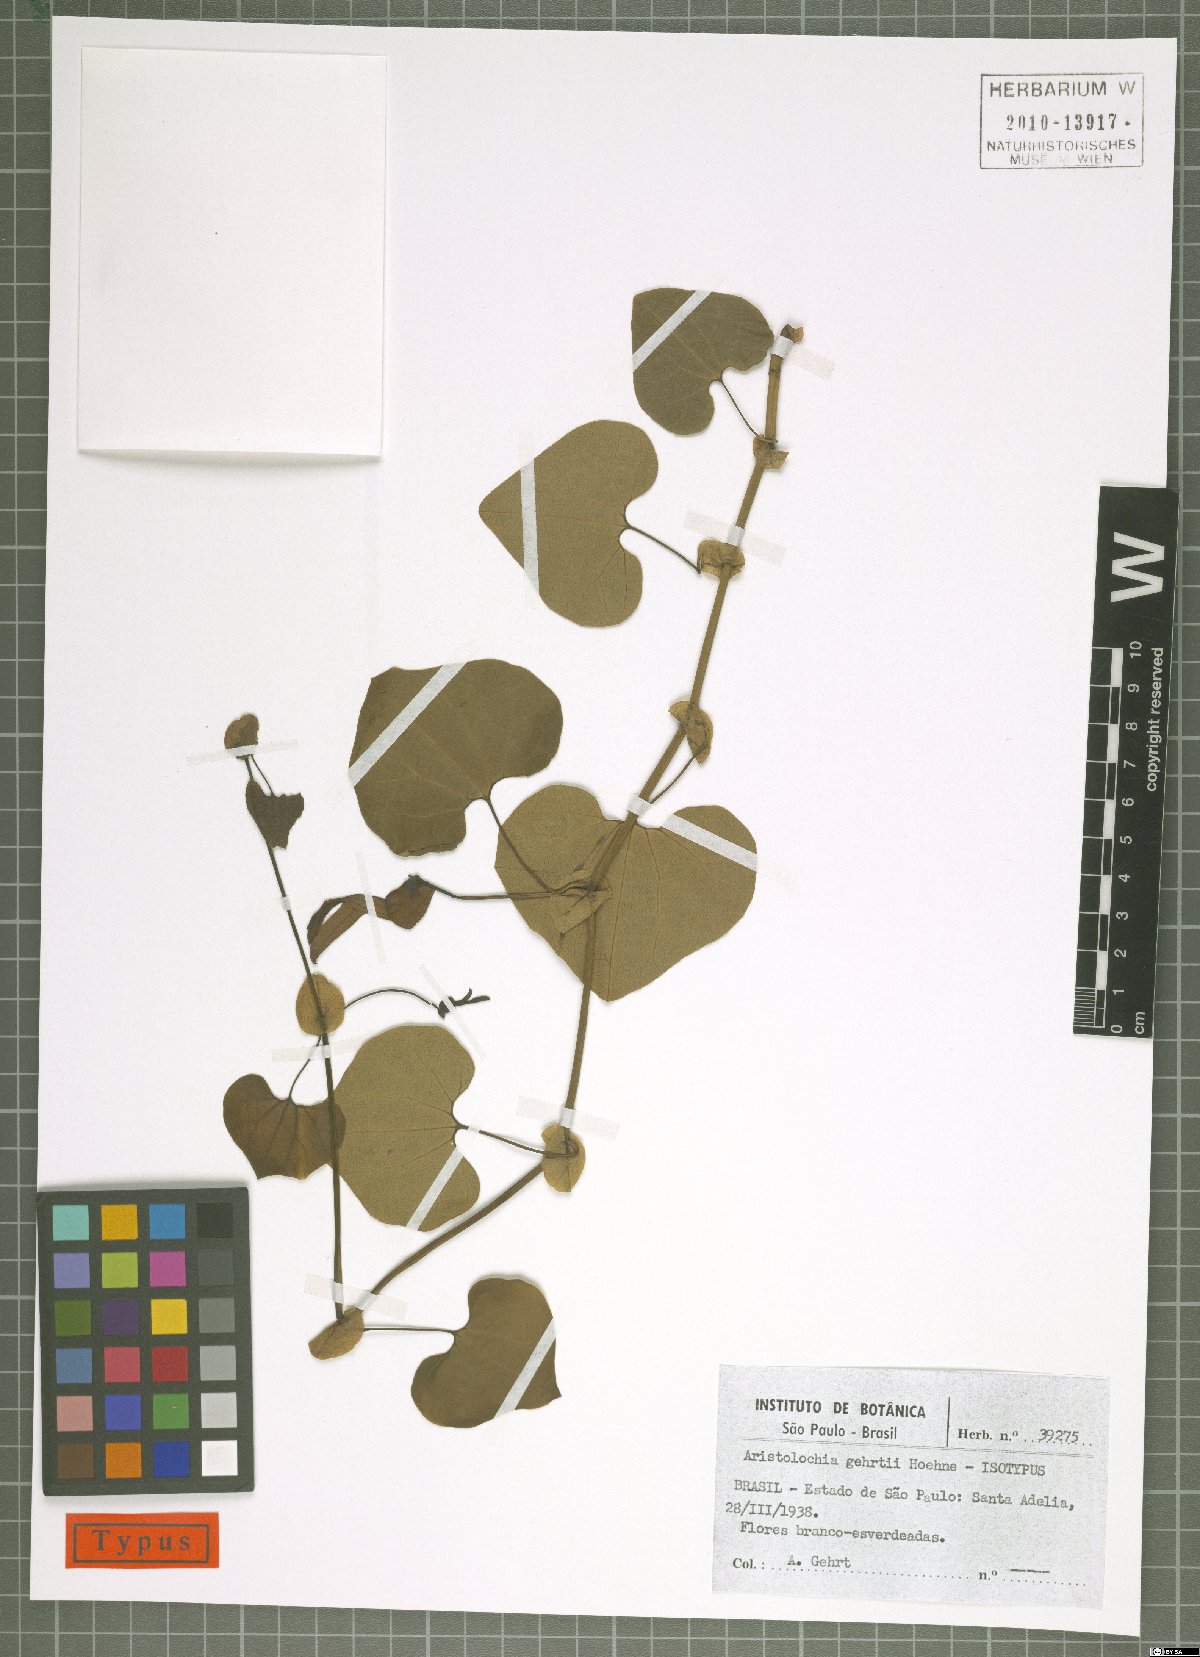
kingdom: Plantae
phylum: Tracheophyta
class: Magnoliopsida
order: Piperales
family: Aristolochiaceae
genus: Aristolochia
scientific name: Aristolochia gehrtii
